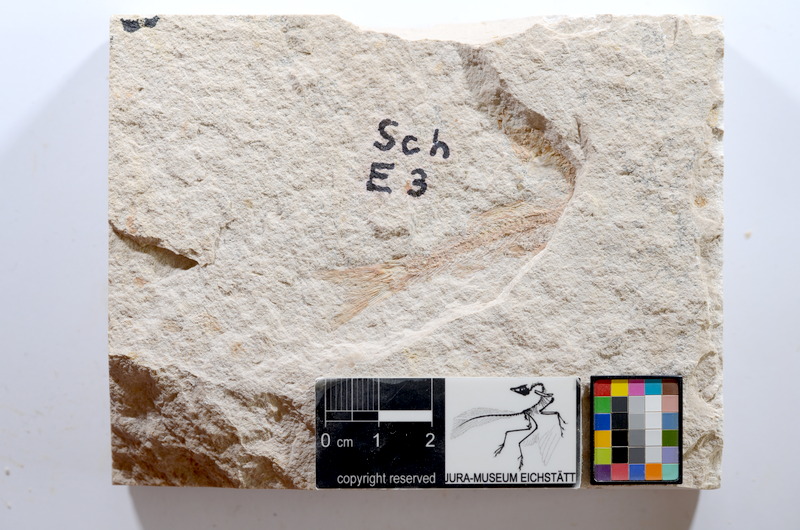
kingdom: Animalia
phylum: Chordata
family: Ascalaboidae
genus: Tharsis
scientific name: Tharsis dubius
